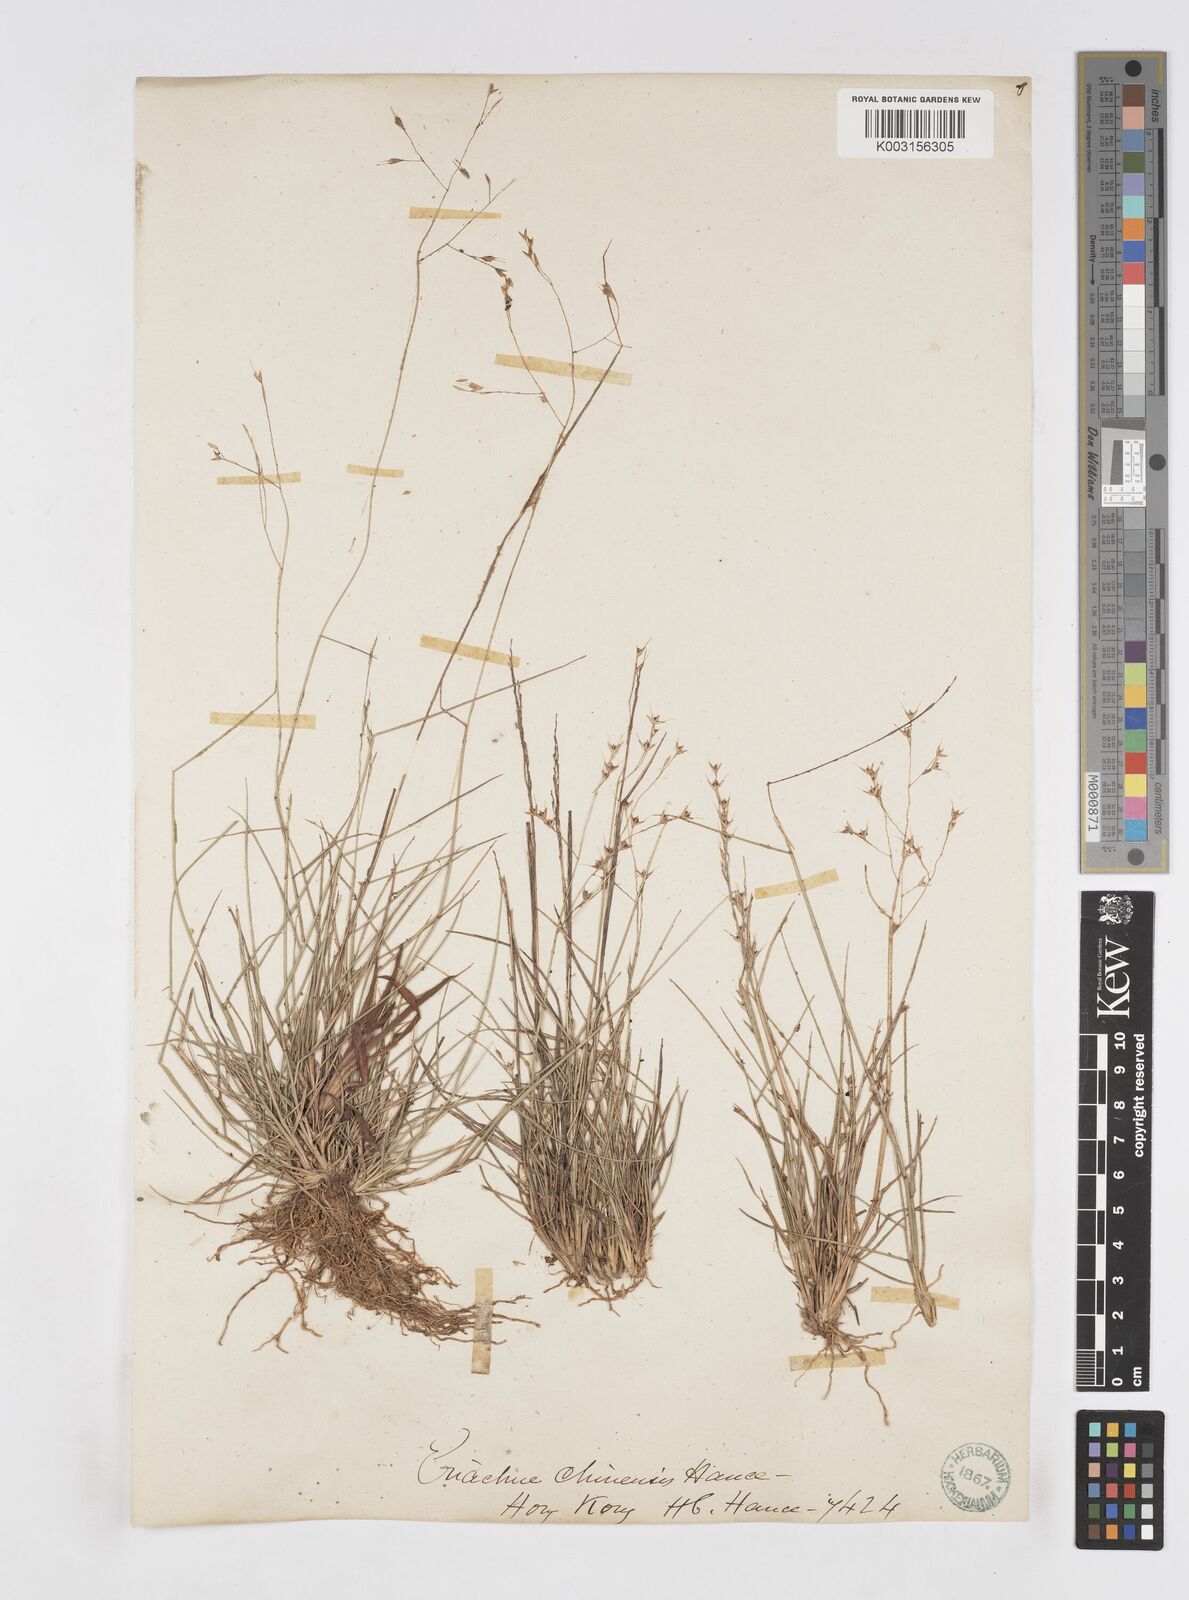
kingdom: Plantae
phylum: Tracheophyta
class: Liliopsida
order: Poales
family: Poaceae
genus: Eriachne
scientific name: Eriachne pallescens
